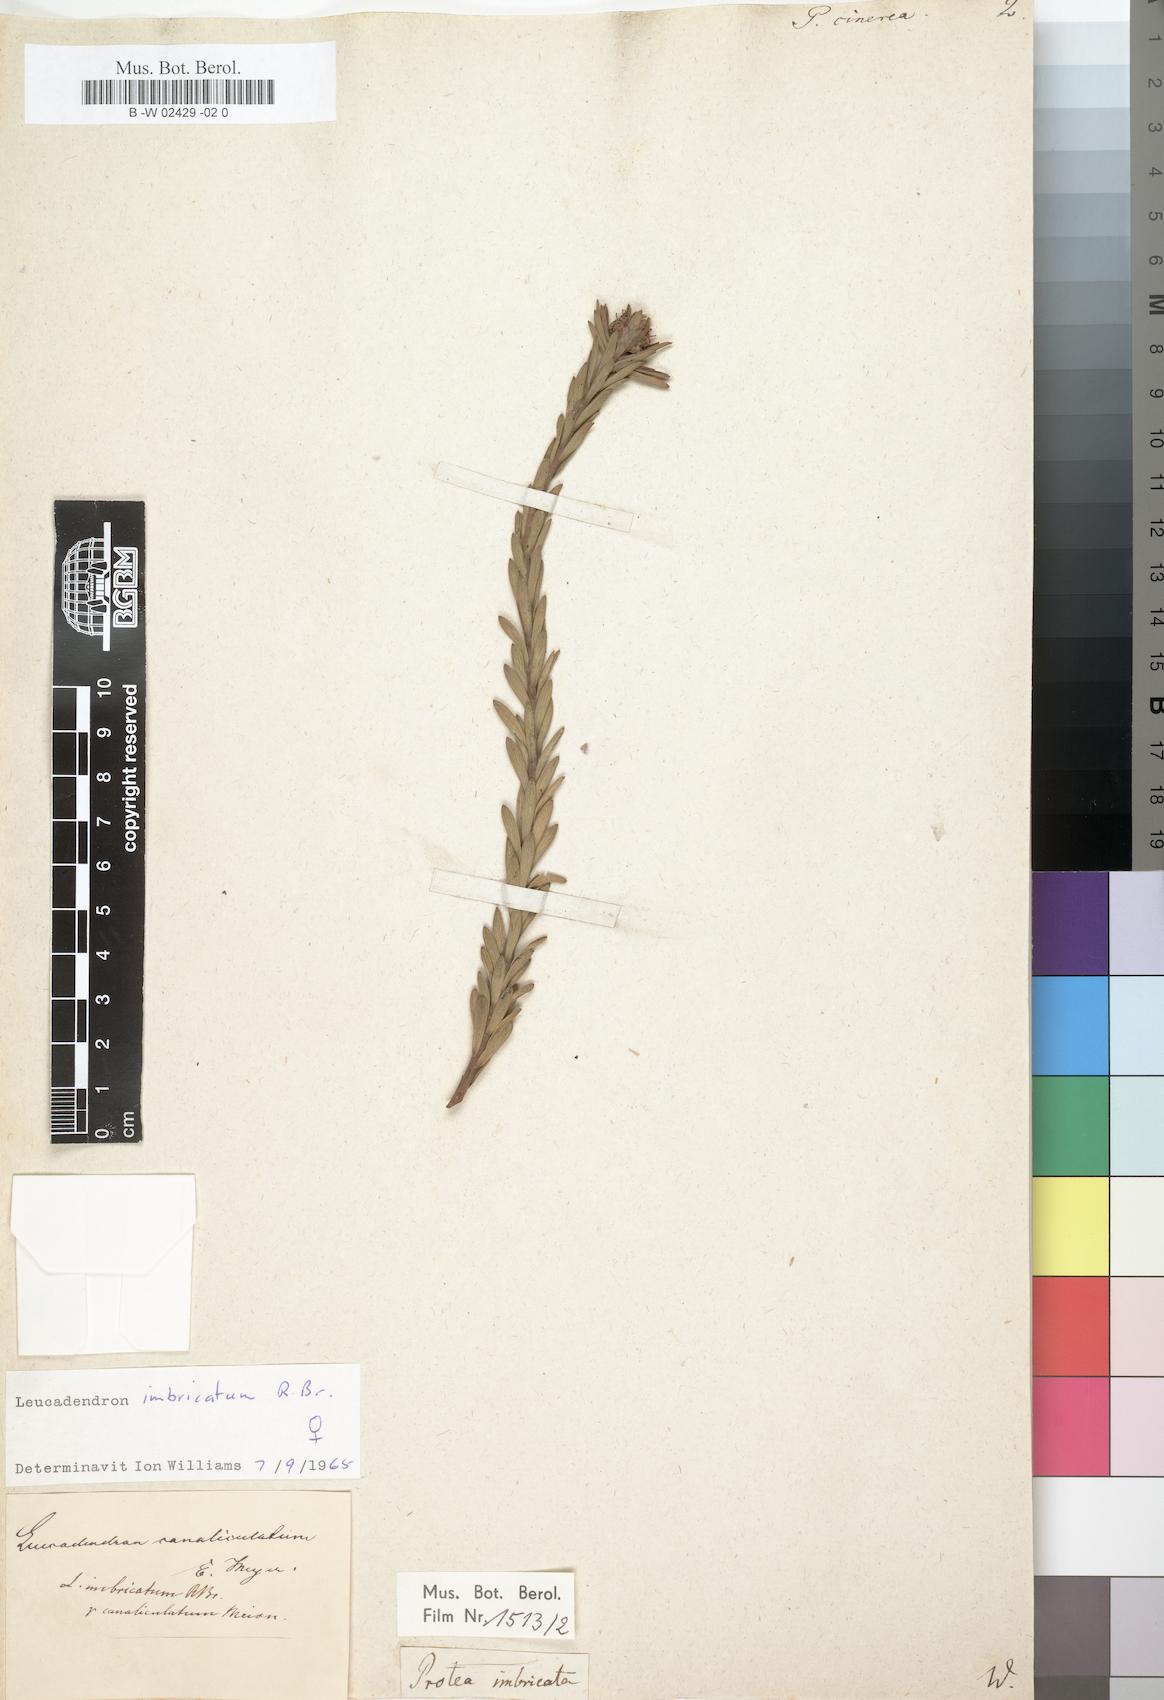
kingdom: Plantae
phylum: Tracheophyta
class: Magnoliopsida
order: Proteales
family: Proteaceae
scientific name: Proteaceae
